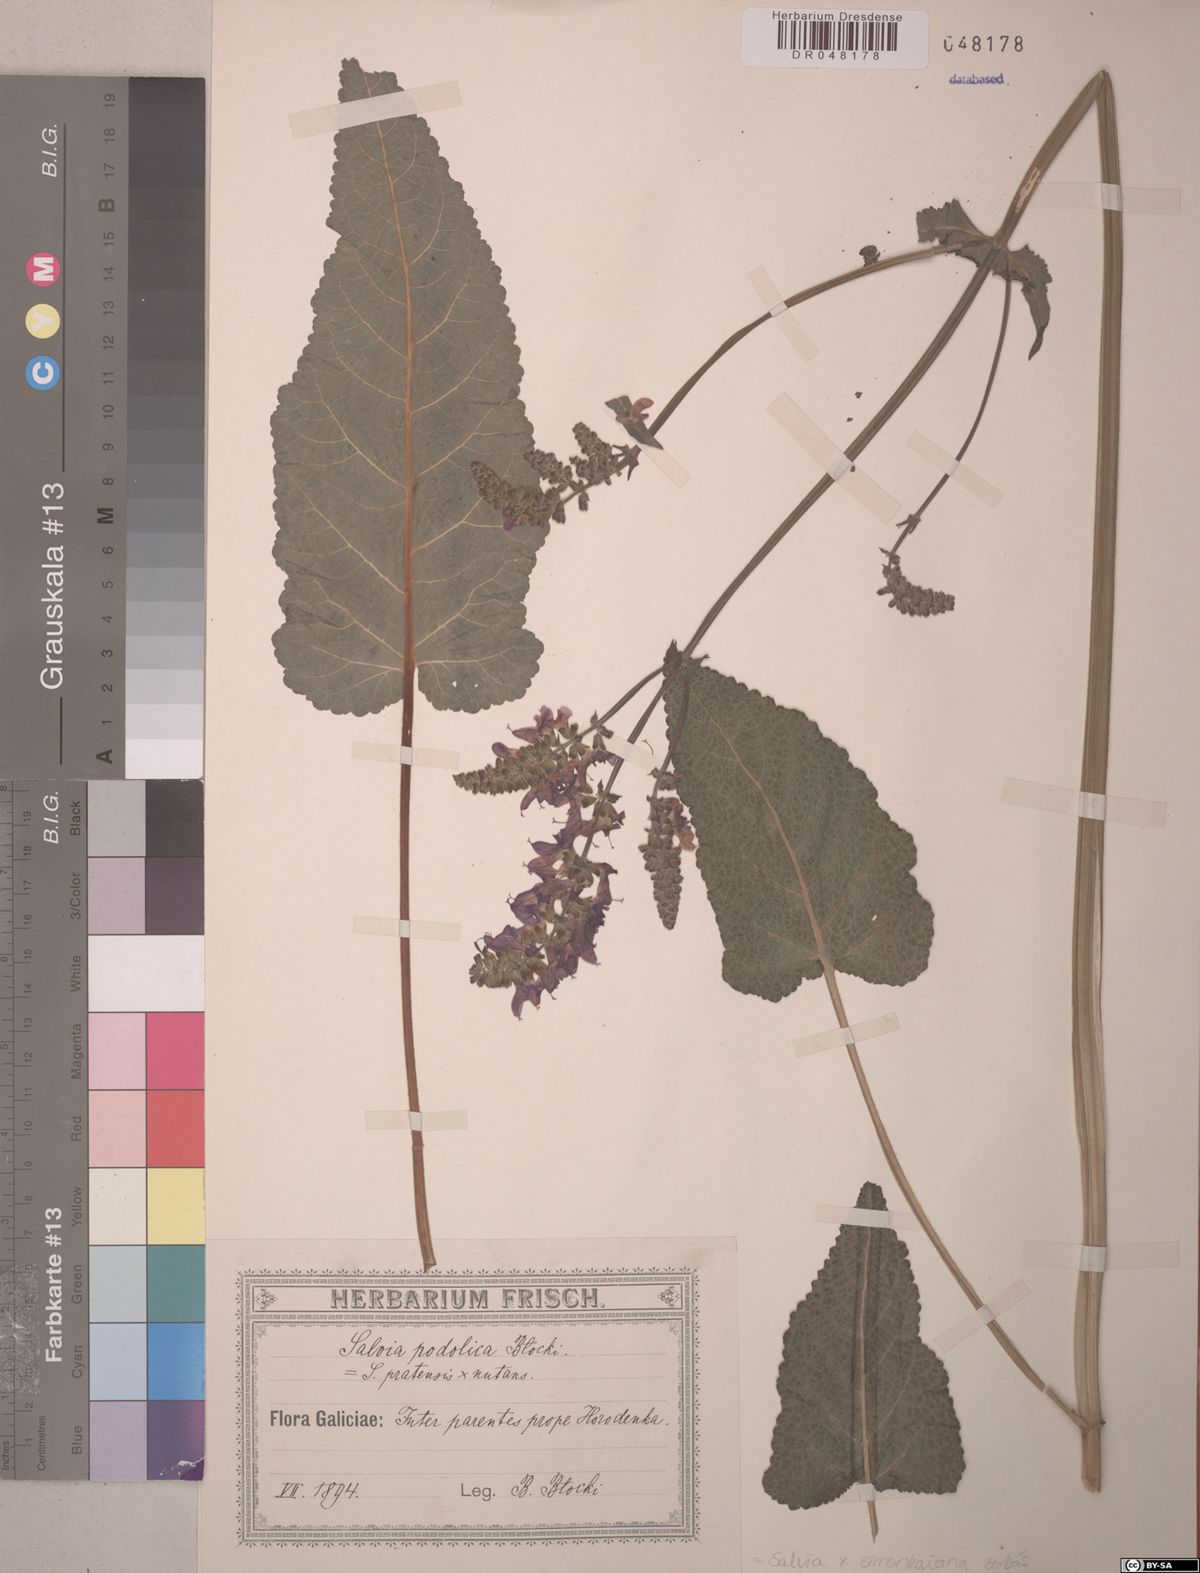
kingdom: Plantae
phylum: Tracheophyta
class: Magnoliopsida
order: Lamiales
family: Lamiaceae
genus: Salvia
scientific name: Salvia simonkaiana
